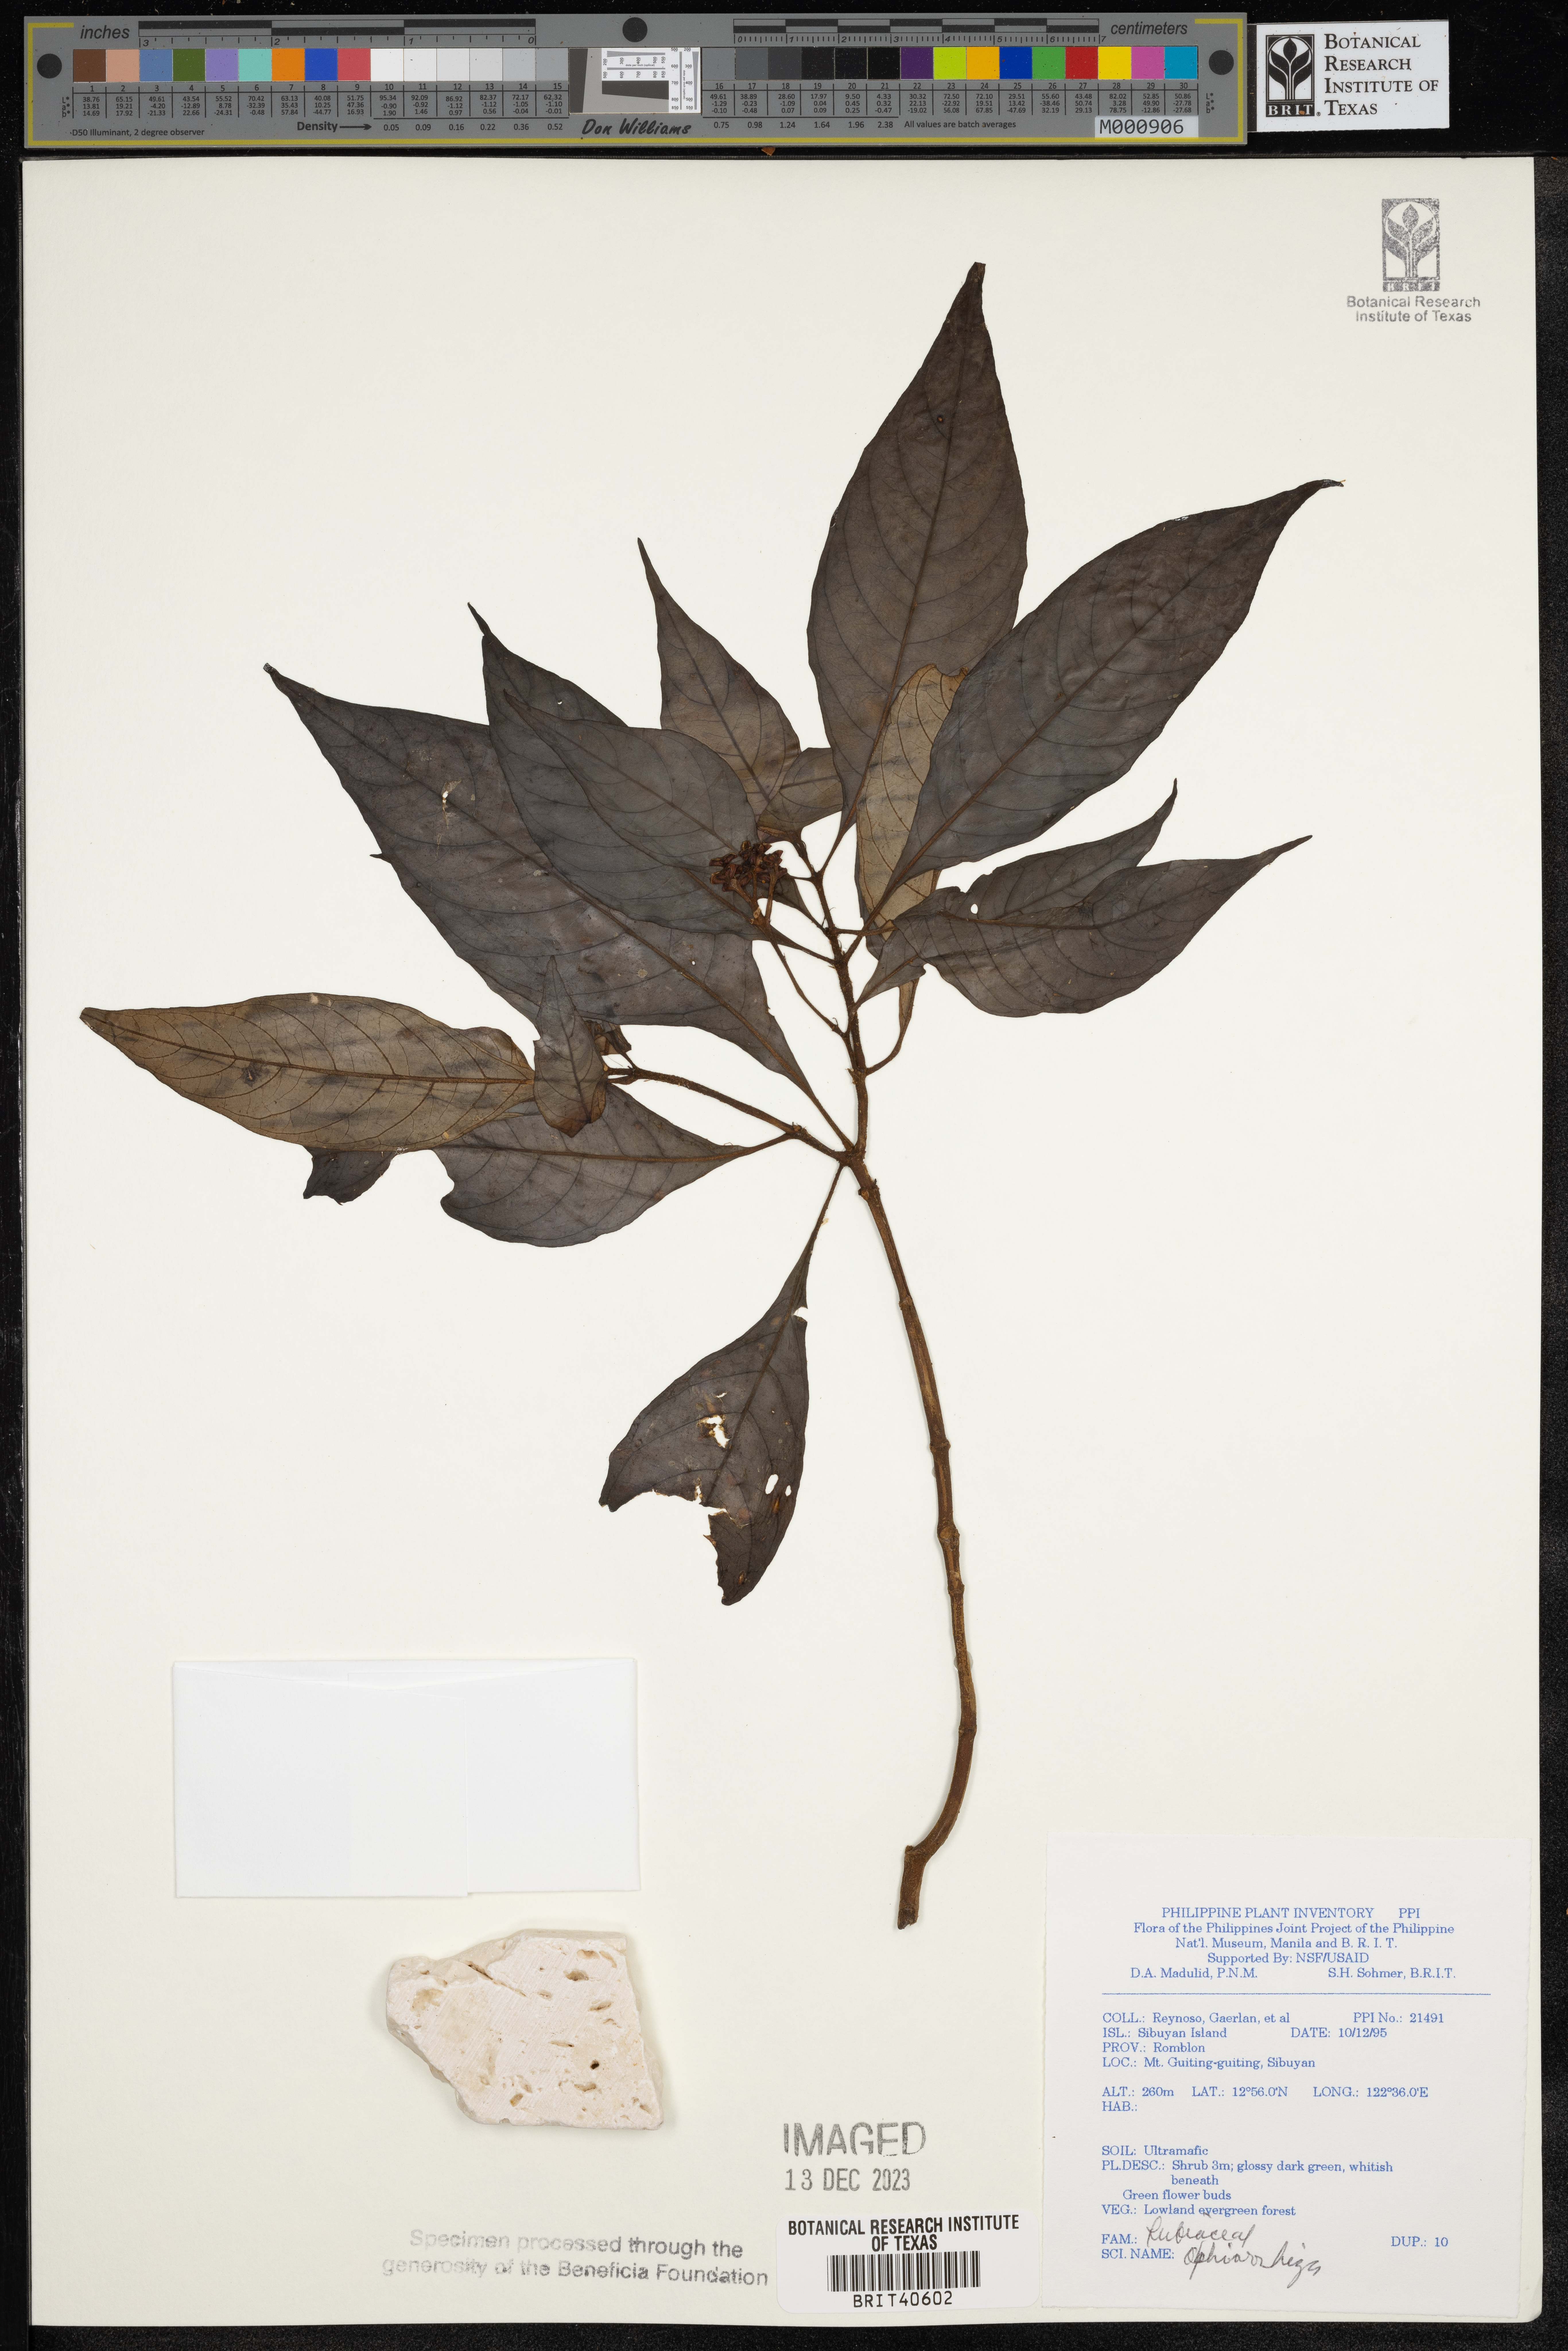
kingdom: Plantae
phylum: Tracheophyta
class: Magnoliopsida
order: Gentianales
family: Rubiaceae
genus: Ophiorrhiza
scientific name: Ophiorrhiza
